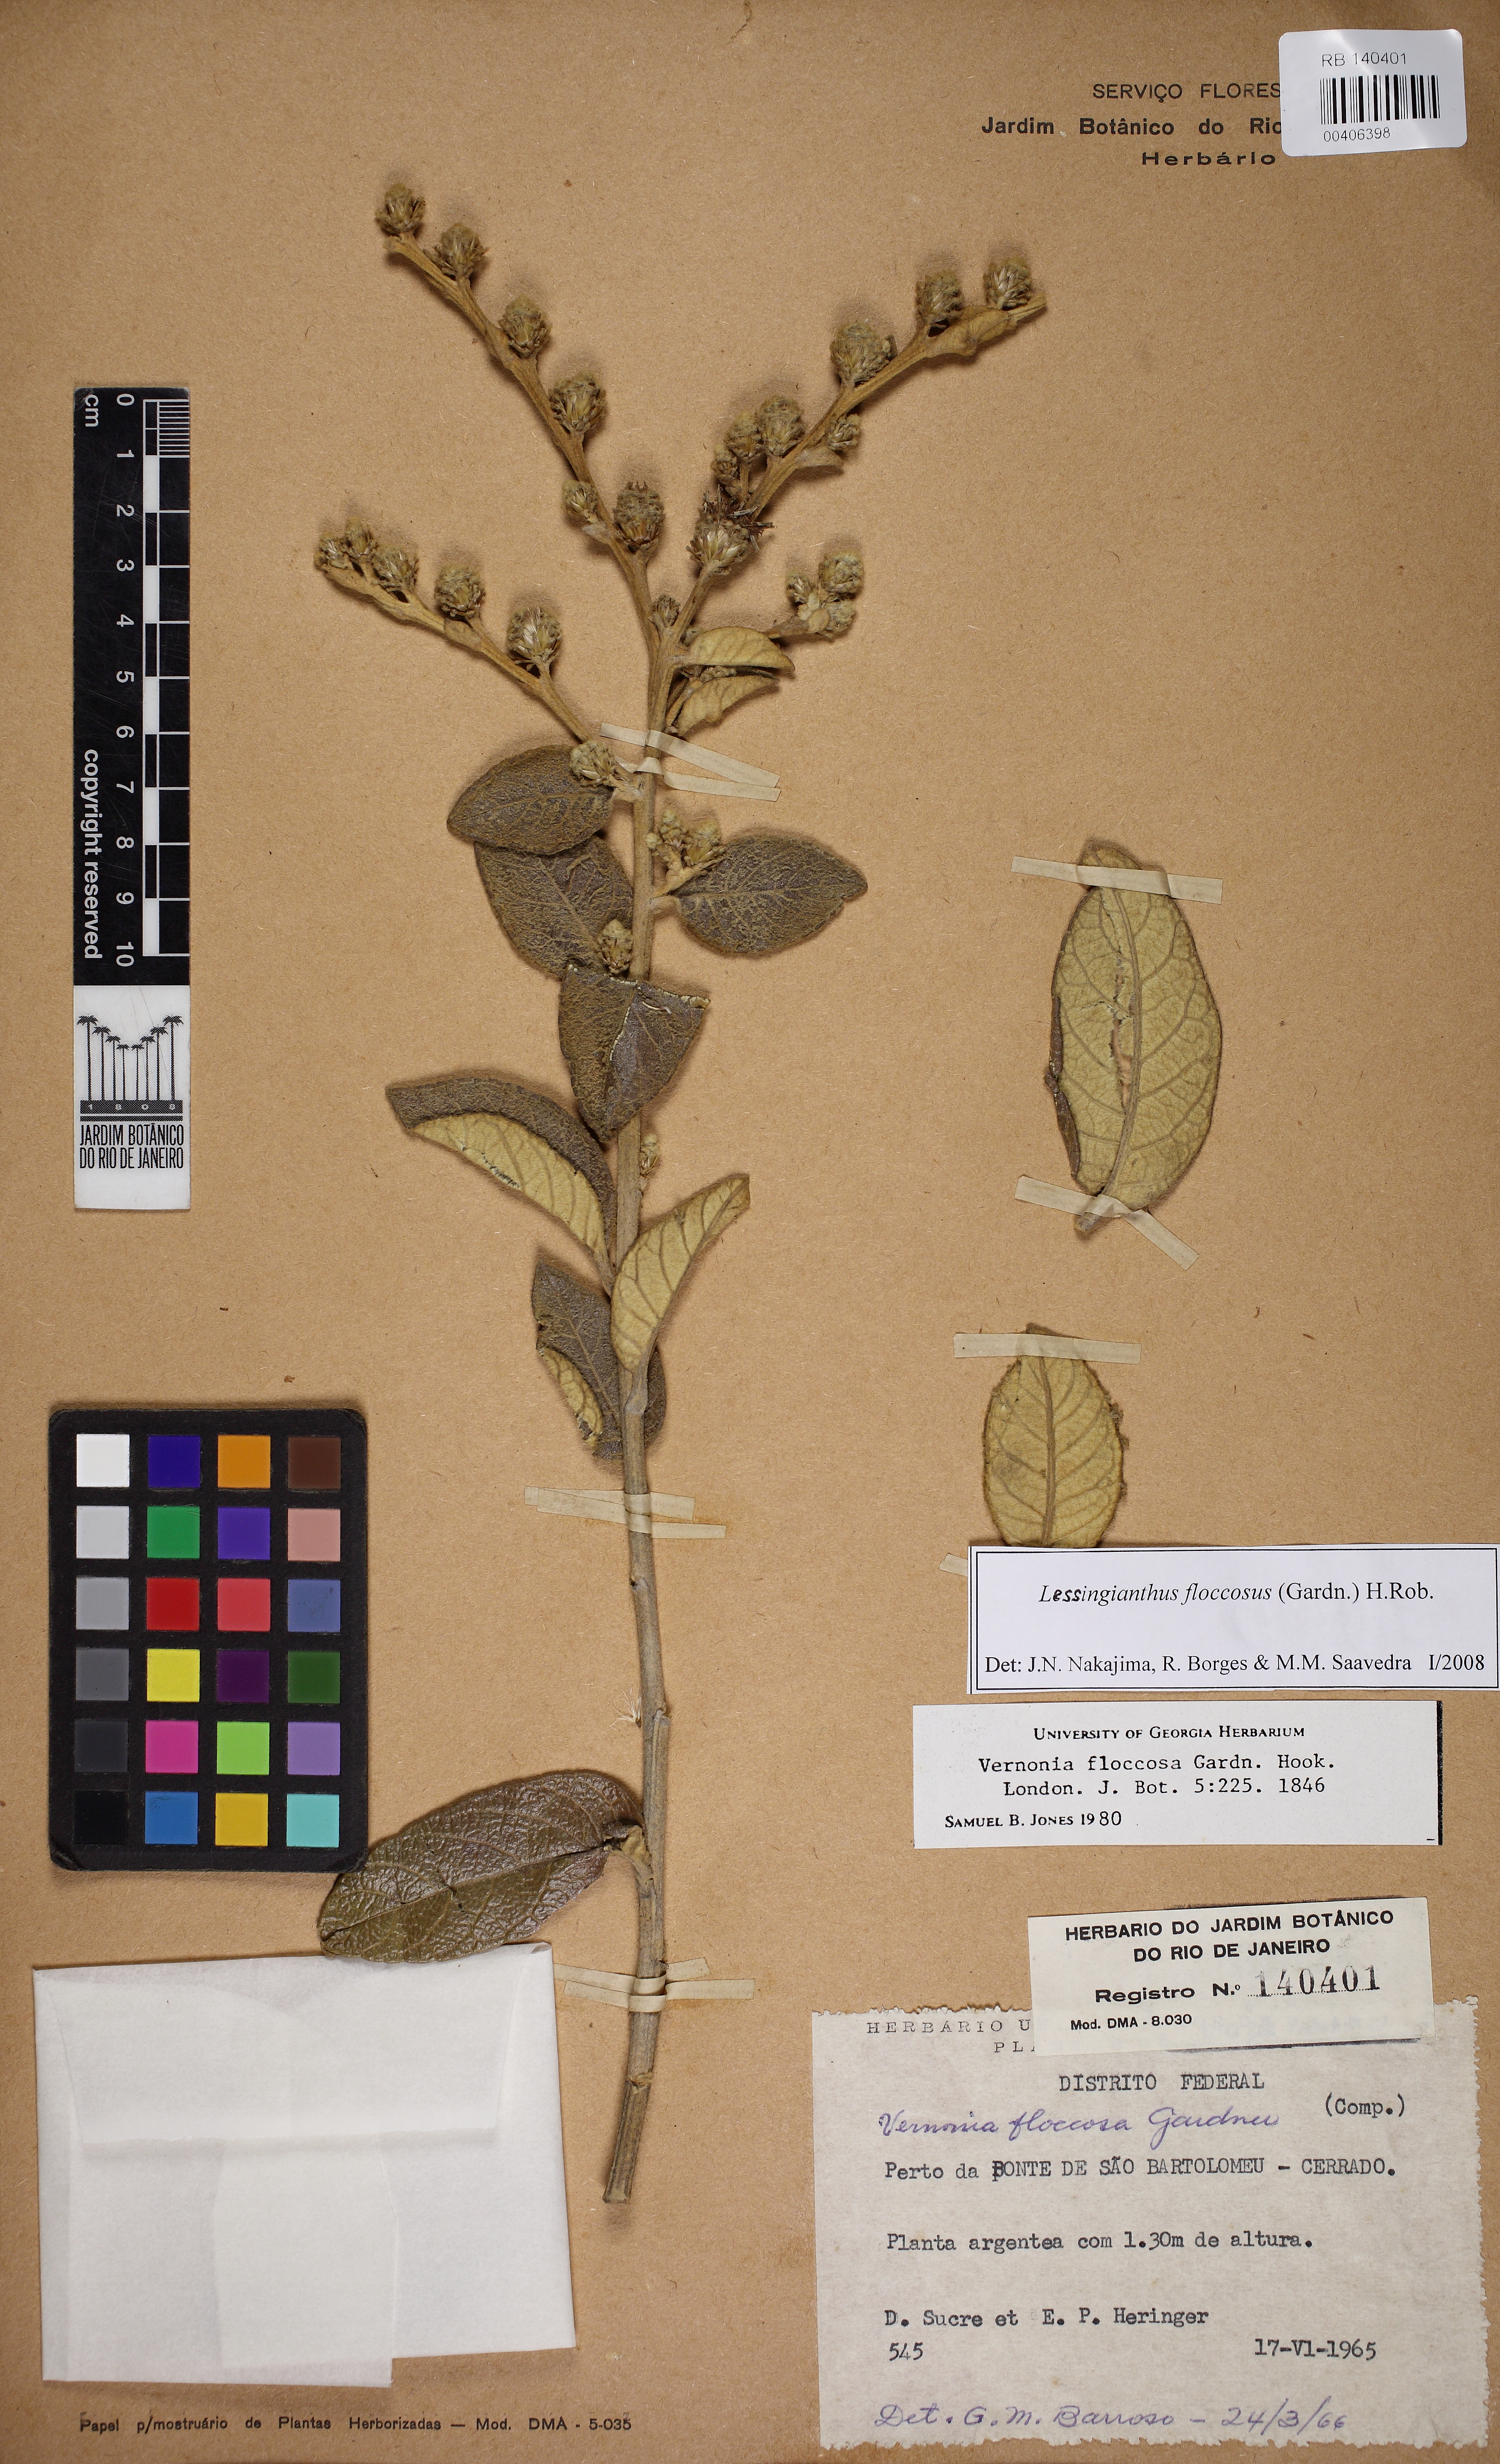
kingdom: Plantae
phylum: Tracheophyta
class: Magnoliopsida
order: Asterales
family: Asteraceae
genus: Lessingianthus
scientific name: Lessingianthus floccosus
